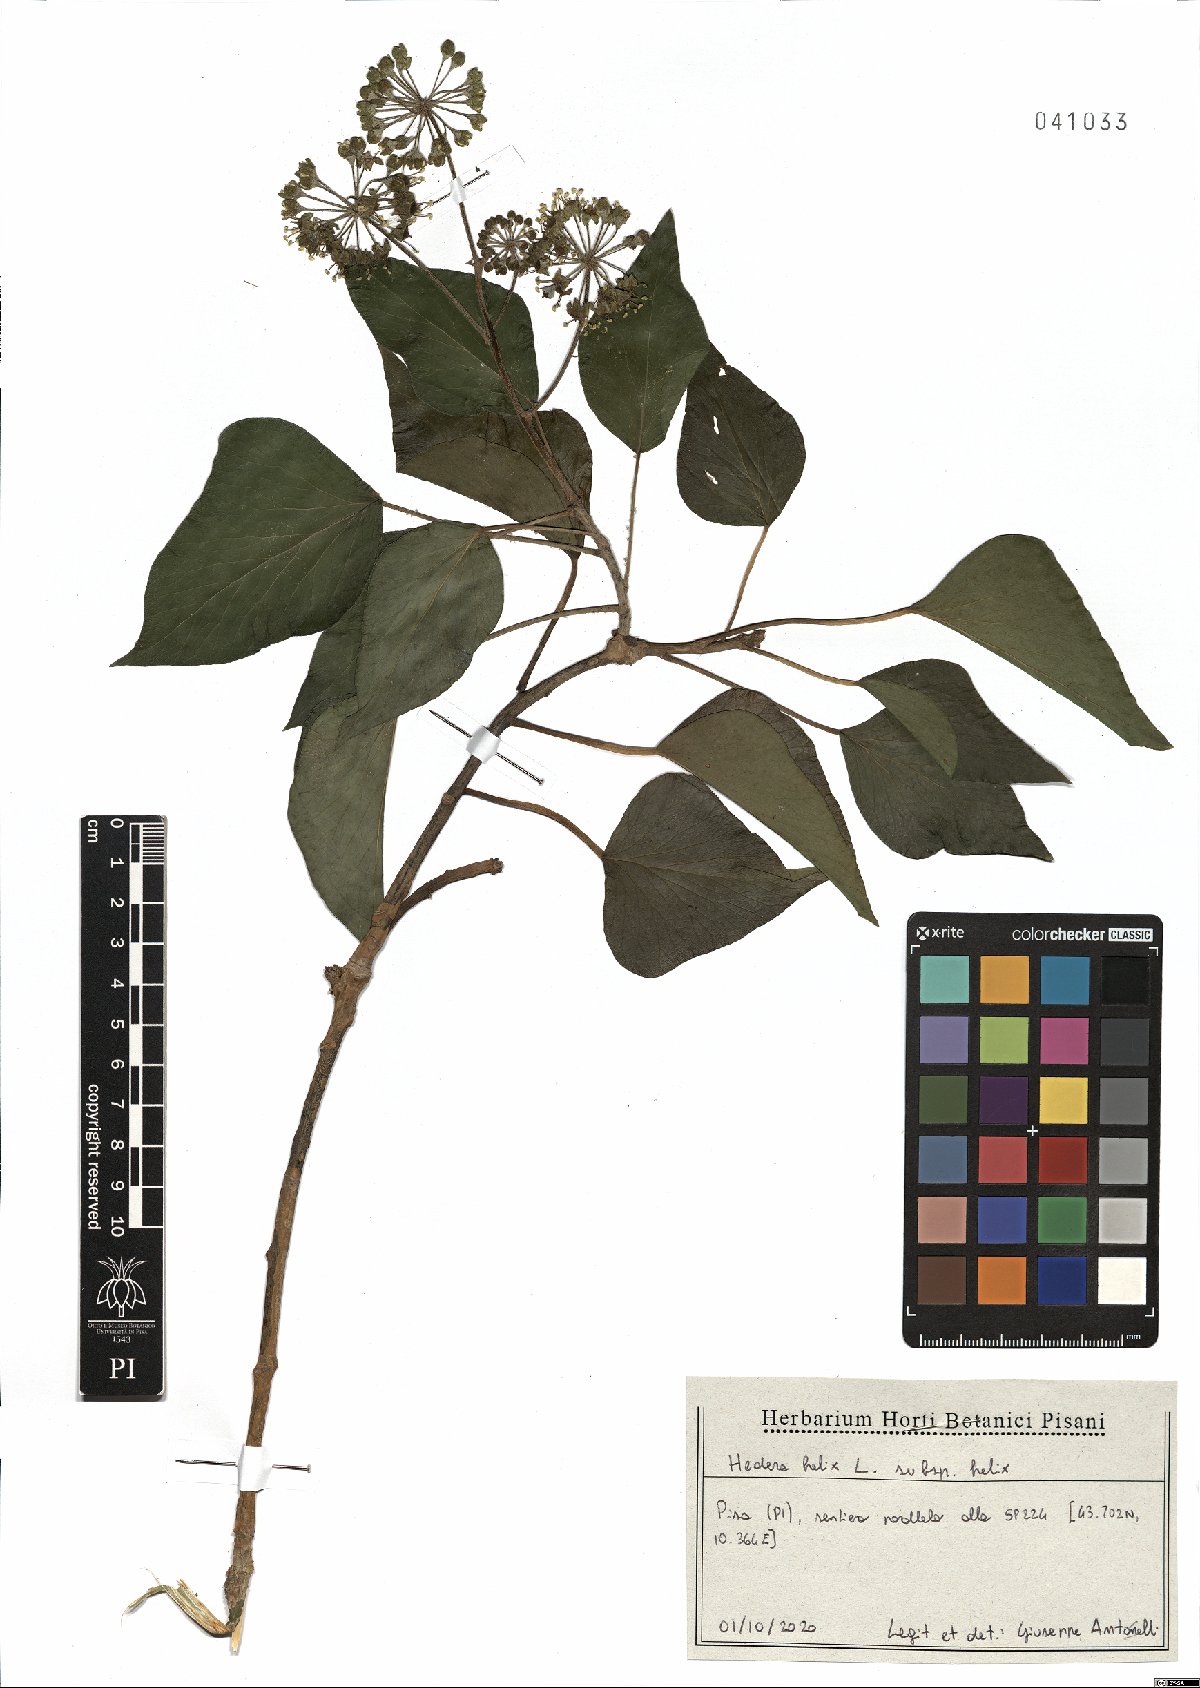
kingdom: Plantae
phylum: Tracheophyta
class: Magnoliopsida
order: Apiales
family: Araliaceae
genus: Hedera
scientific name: Hedera helix
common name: Ivy
